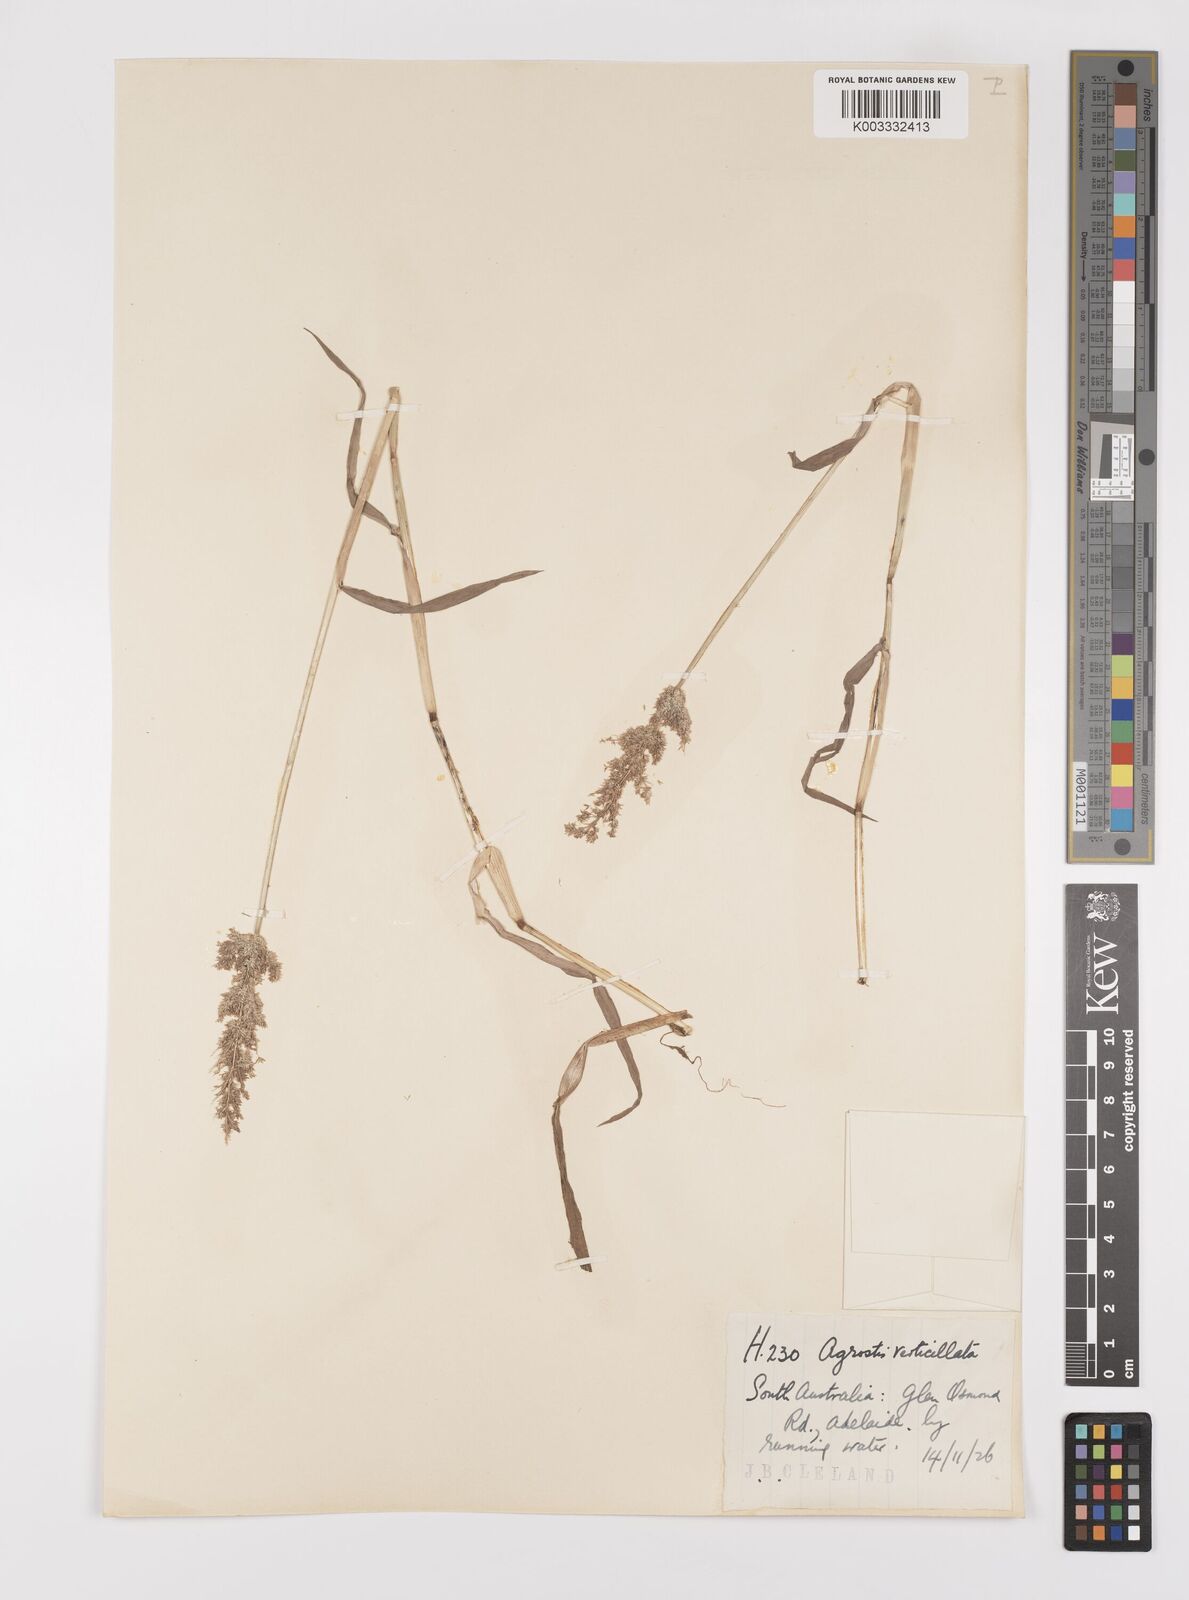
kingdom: Plantae
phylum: Tracheophyta
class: Liliopsida
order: Poales
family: Poaceae
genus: Polypogon
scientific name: Polypogon viridis
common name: Water bent
